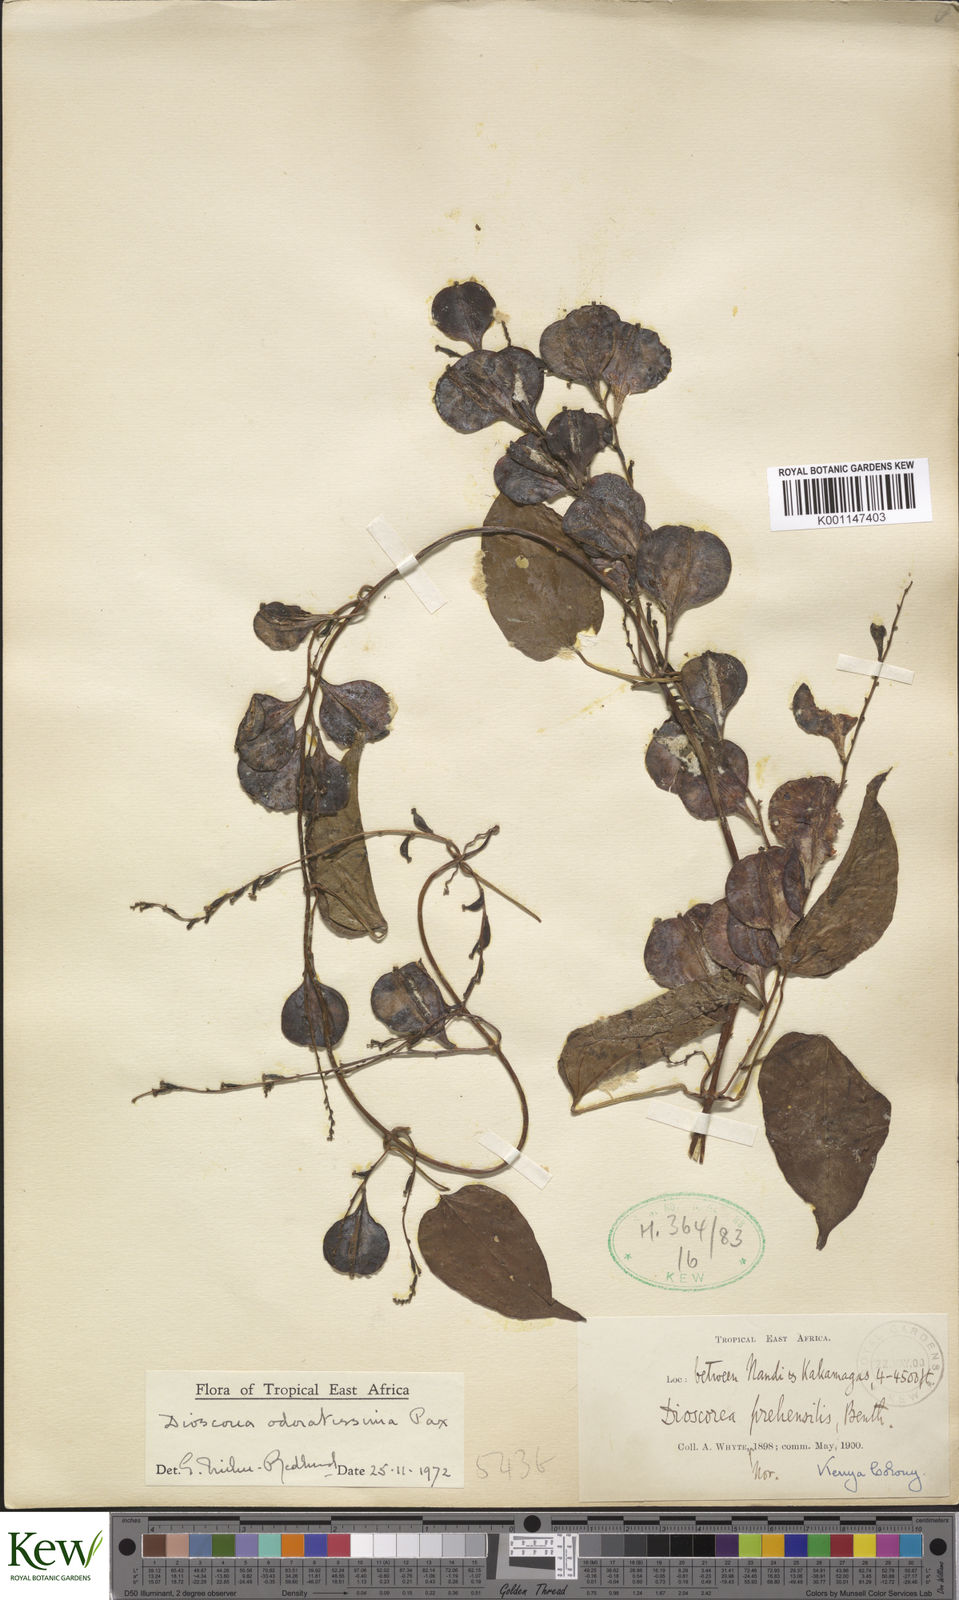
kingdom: Plantae
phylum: Tracheophyta
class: Liliopsida
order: Dioscoreales
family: Dioscoreaceae
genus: Dioscorea
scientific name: Dioscorea praehensilis
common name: Bush yam
